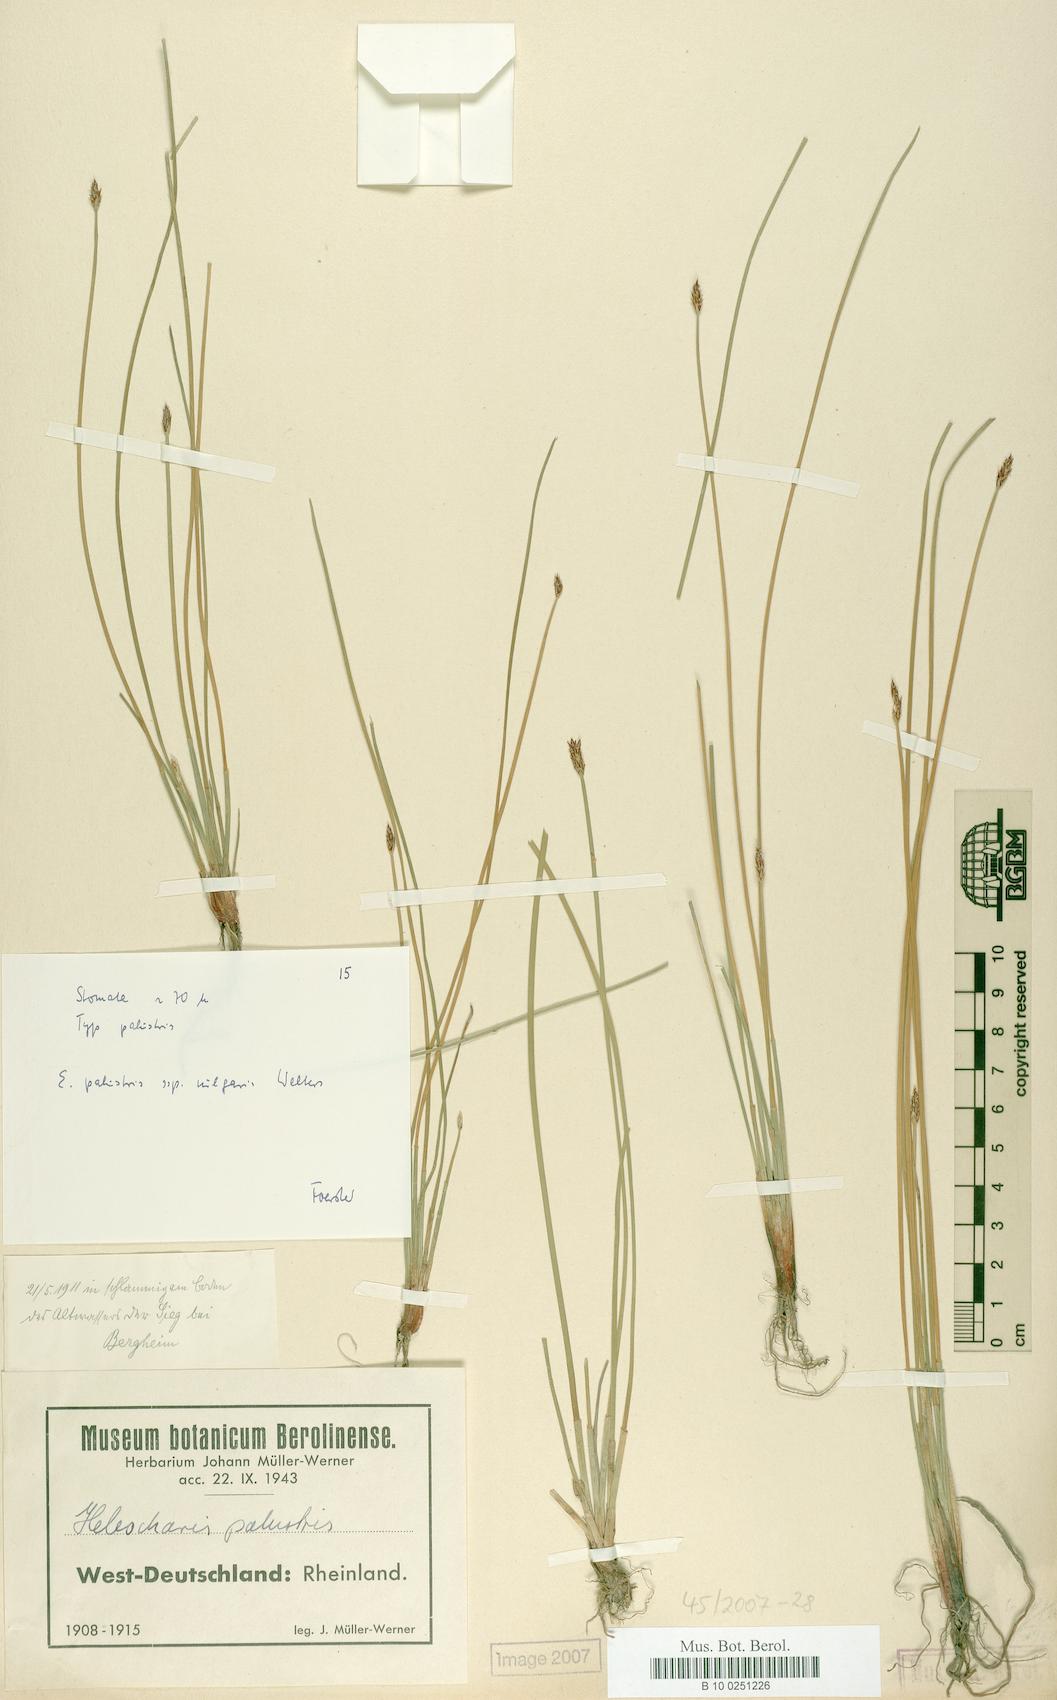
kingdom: Plantae
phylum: Tracheophyta
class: Liliopsida
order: Poales
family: Cyperaceae
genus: Eleocharis
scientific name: Eleocharis palustris
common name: Common spike-rush
